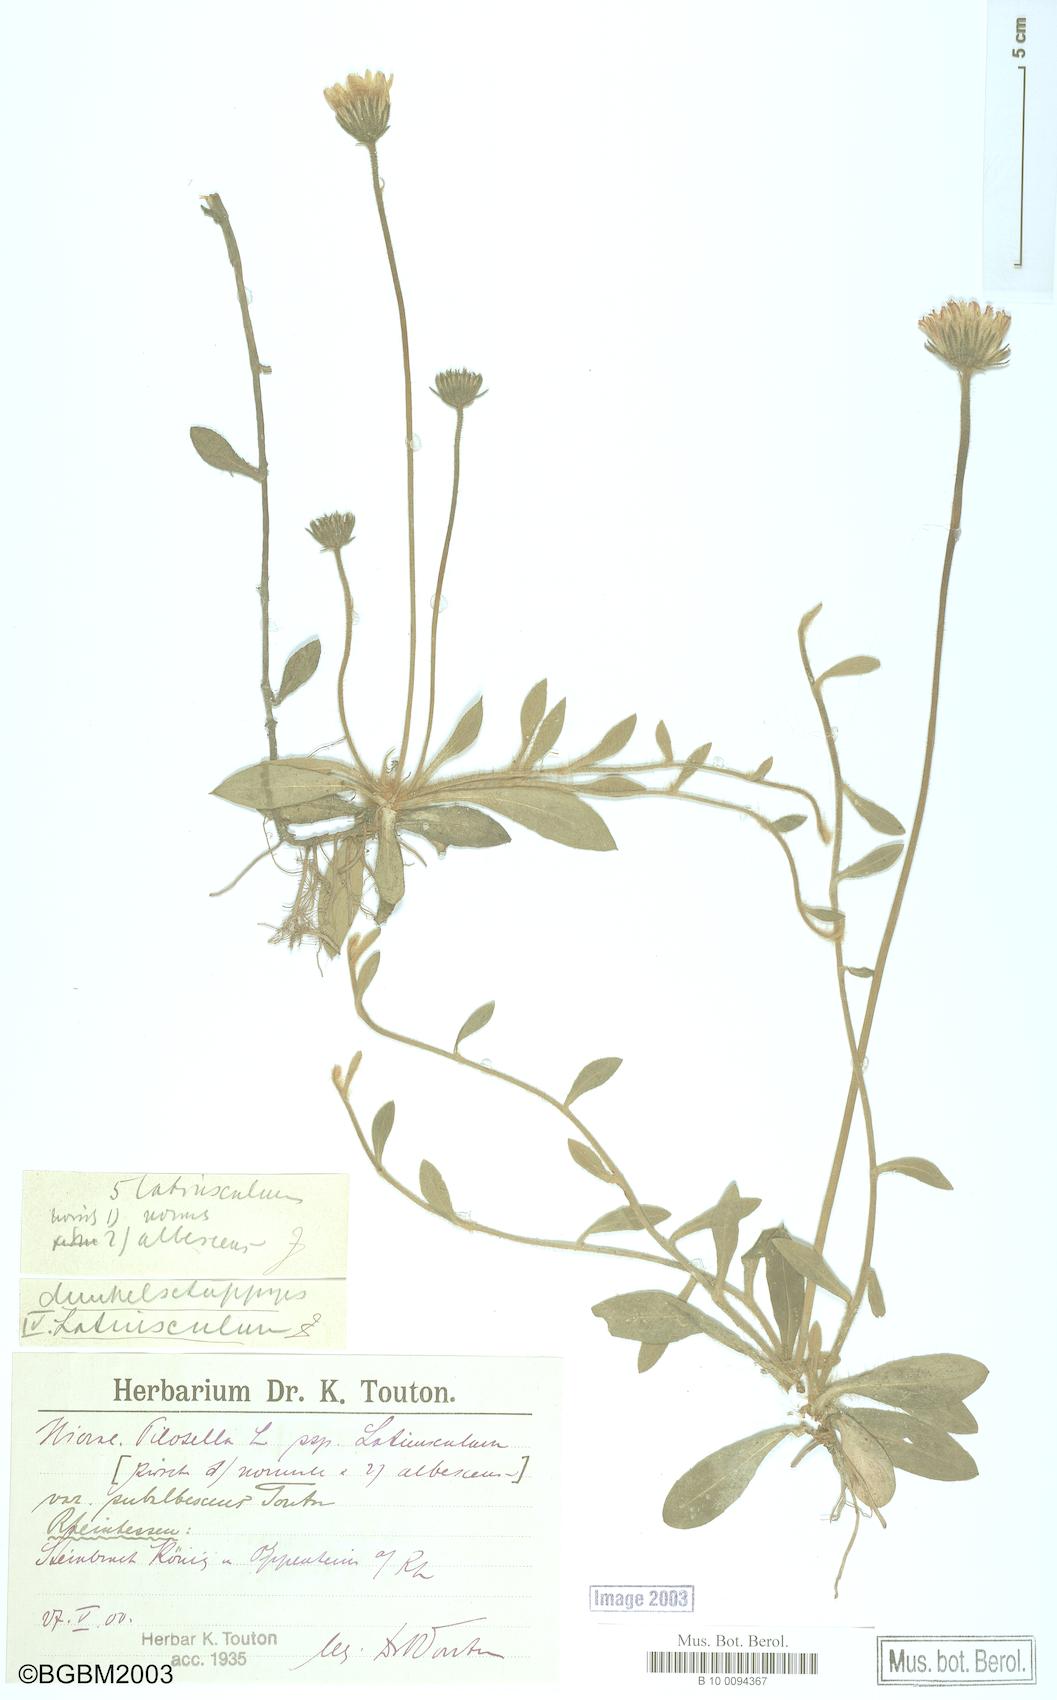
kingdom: Plantae
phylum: Tracheophyta
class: Magnoliopsida
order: Asterales
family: Asteraceae
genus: Pilosella
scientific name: Pilosella officinarum
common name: Mouse-ear hawkweed
